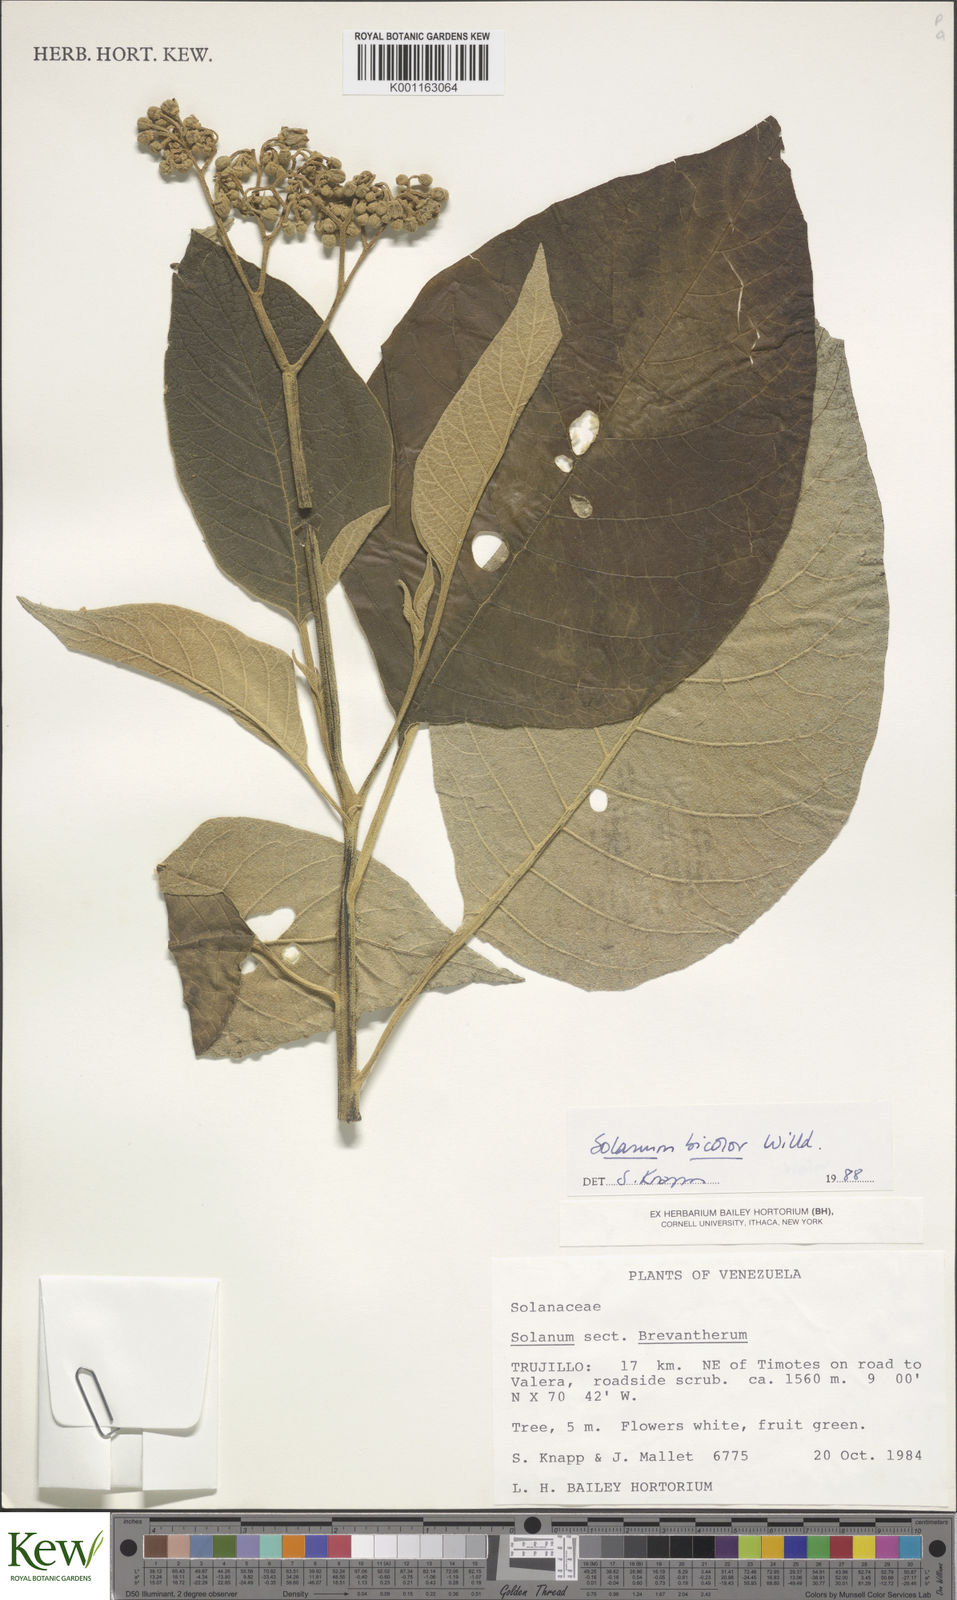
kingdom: Plantae
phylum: Tracheophyta
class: Magnoliopsida
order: Solanales
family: Solanaceae
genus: Solanum
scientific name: Solanum bicolor
